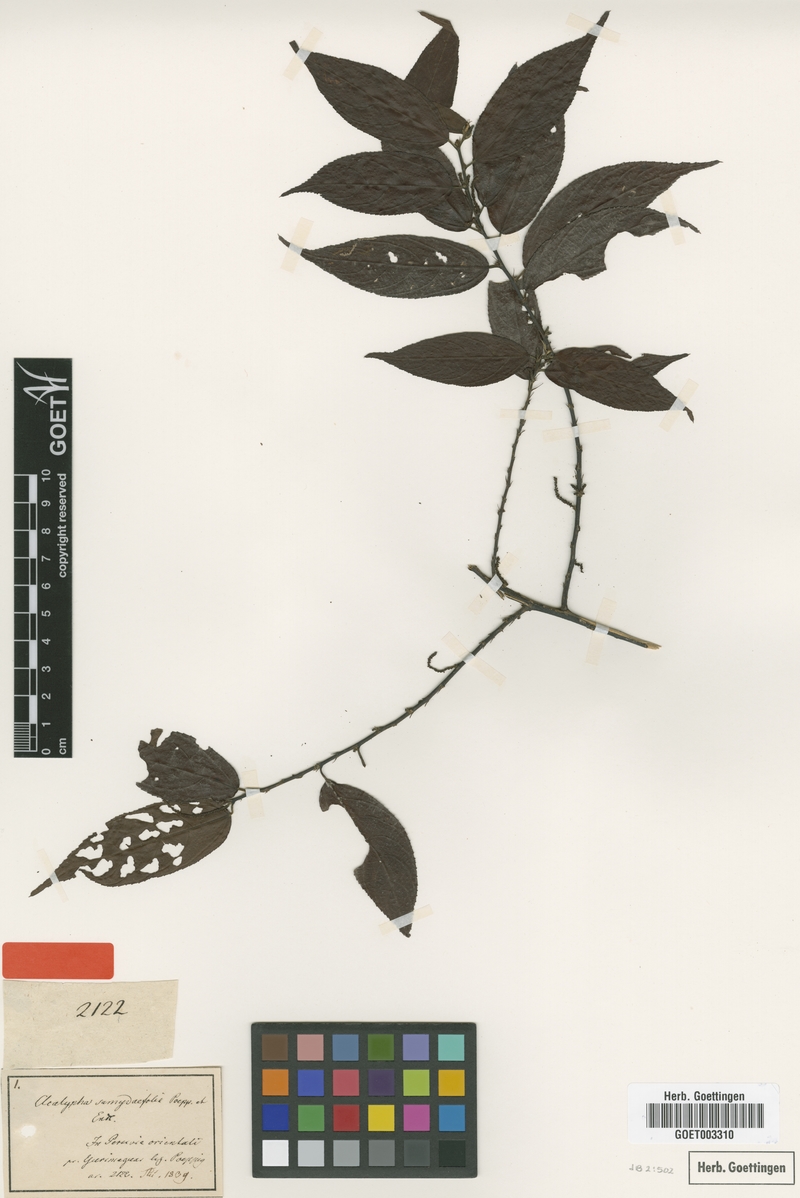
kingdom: Plantae
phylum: Tracheophyta
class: Magnoliopsida
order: Malpighiales
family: Euphorbiaceae
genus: Acalypha
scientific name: Acalypha diversifolia
